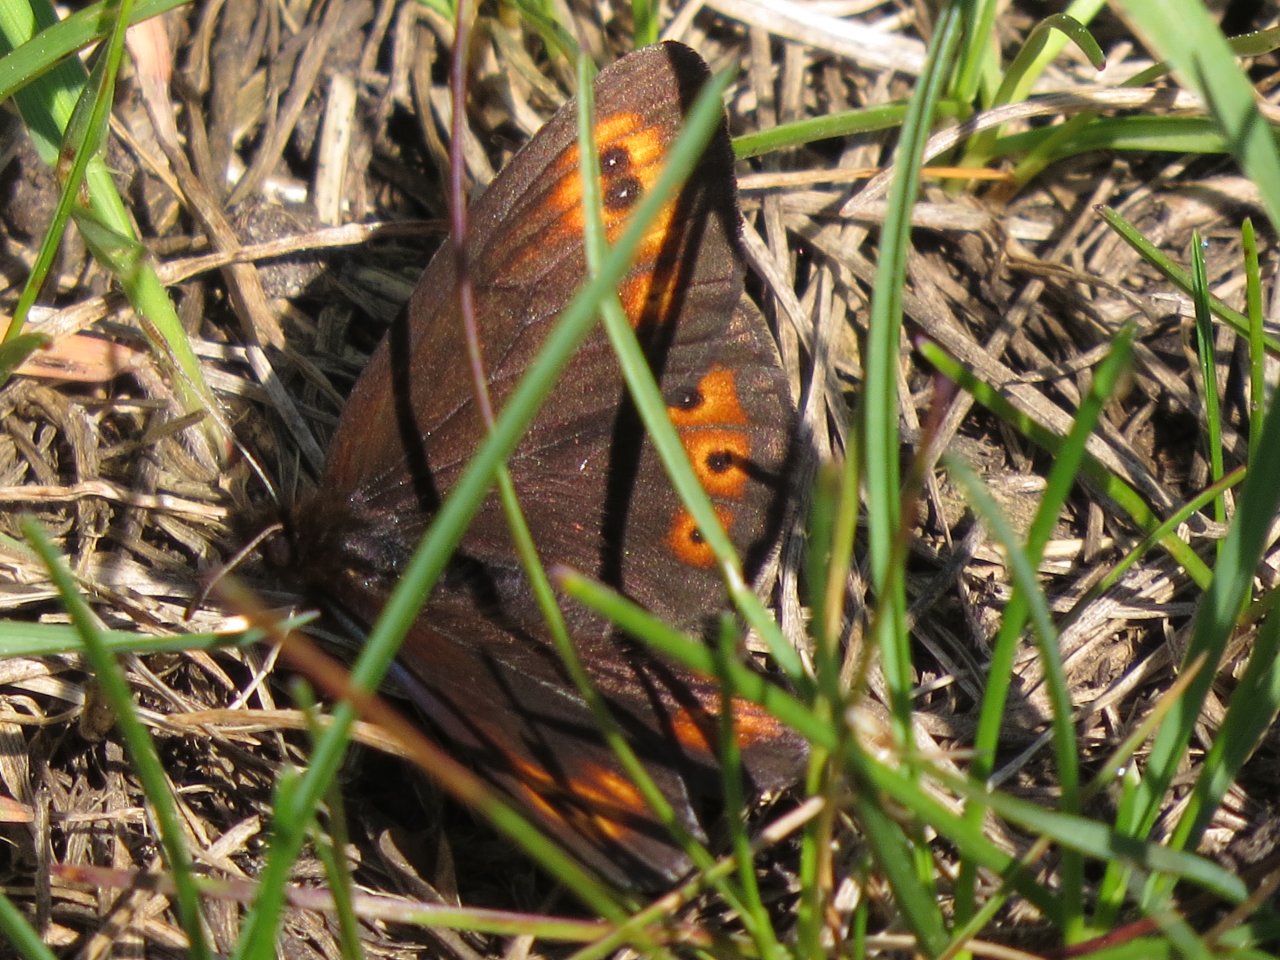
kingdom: Animalia
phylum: Arthropoda
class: Insecta
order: Lepidoptera
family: Nymphalidae
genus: Erebia
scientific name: Erebia epipsodea
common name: Common Alpine
